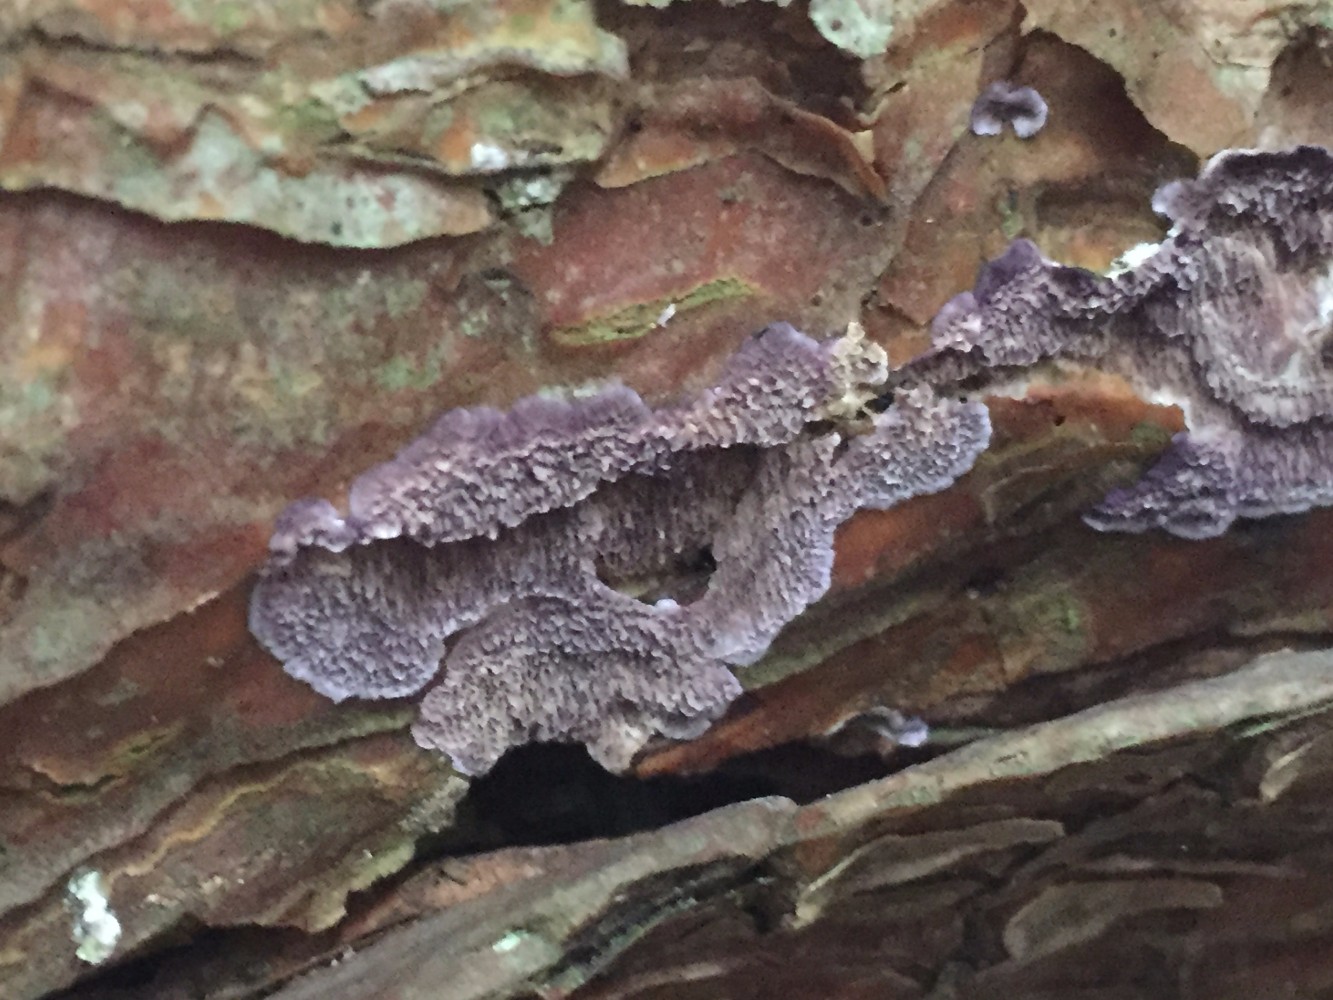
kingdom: Fungi
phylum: Basidiomycota
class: Agaricomycetes
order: Hymenochaetales
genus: Trichaptum
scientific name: Trichaptum fuscoviolaceum
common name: tandet violporesvamp
